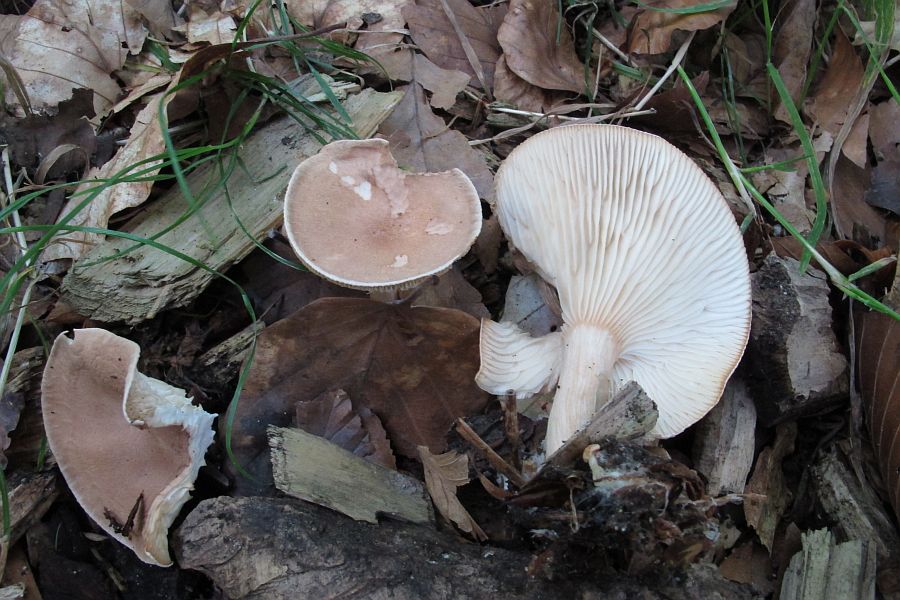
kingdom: Fungi
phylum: Basidiomycota
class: Agaricomycetes
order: Agaricales
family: Tricholomataceae
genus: Infundibulicybe
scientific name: Infundibulicybe gibba
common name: almindelig tragthat
